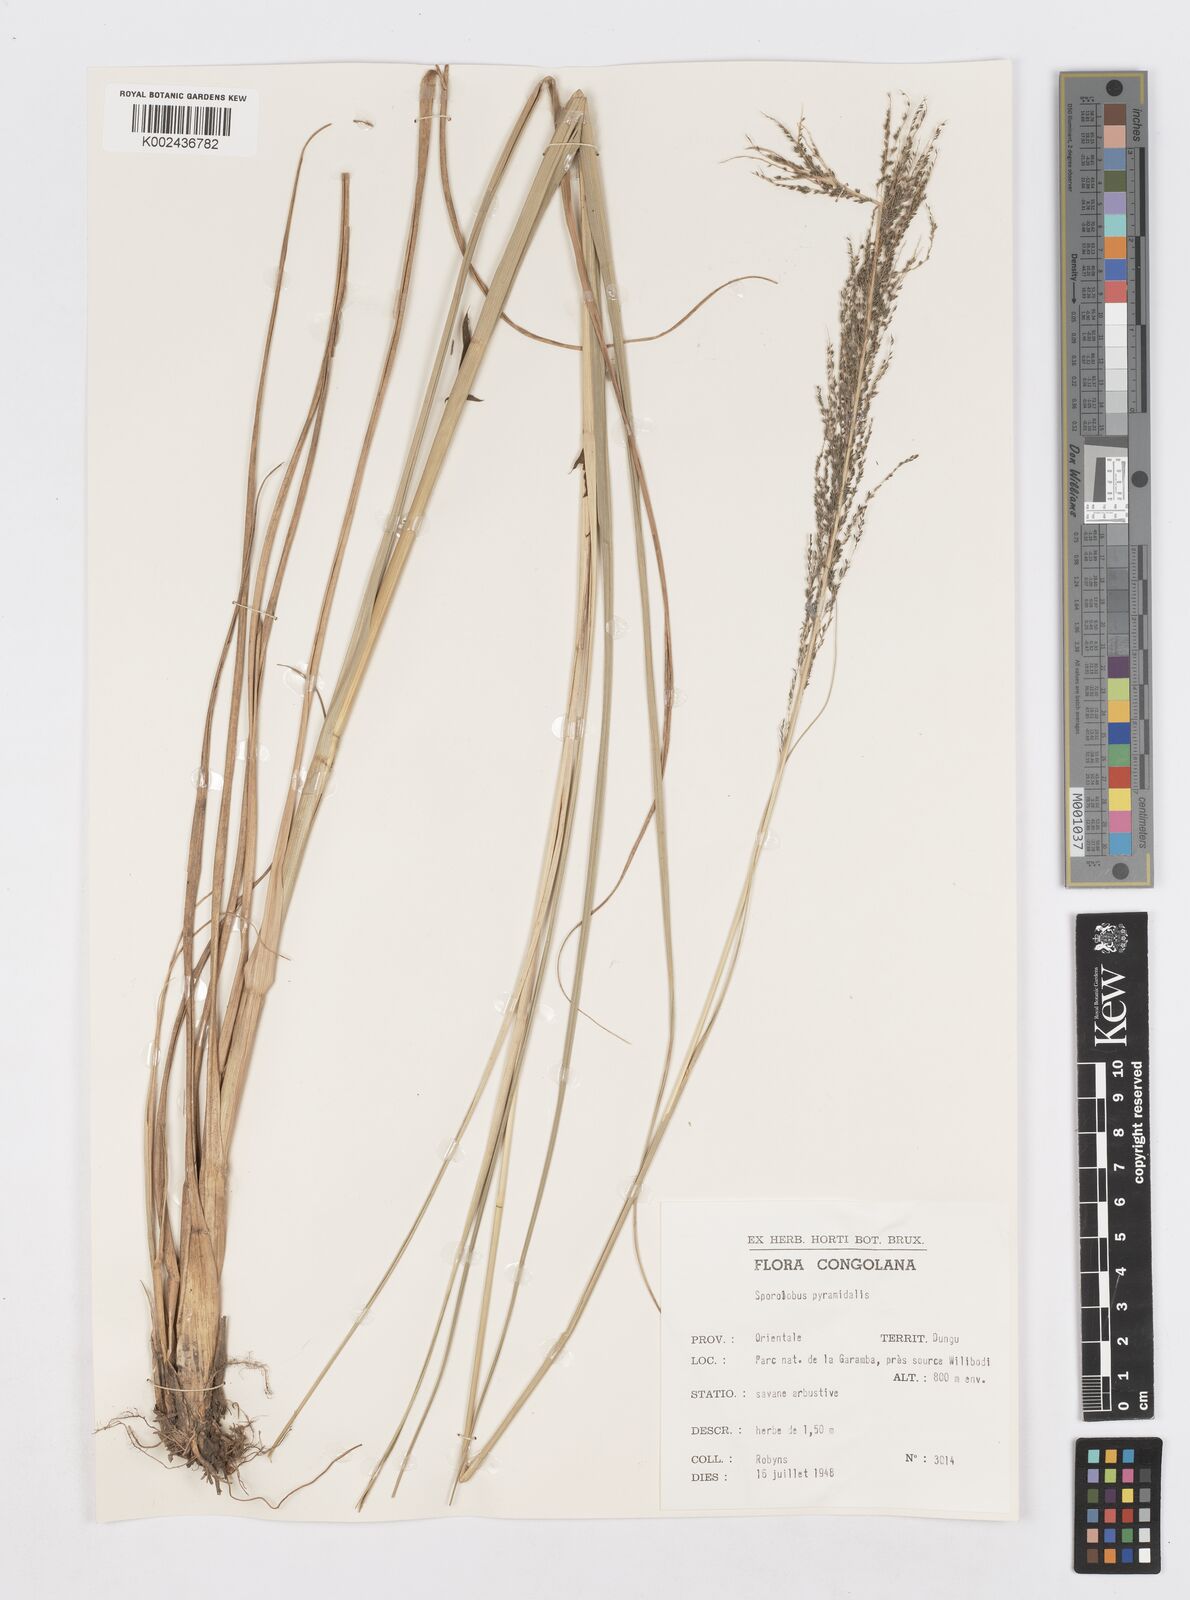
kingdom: Plantae
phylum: Tracheophyta
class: Liliopsida
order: Poales
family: Poaceae
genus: Sporobolus
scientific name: Sporobolus pyramidalis
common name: West indian dropseed
